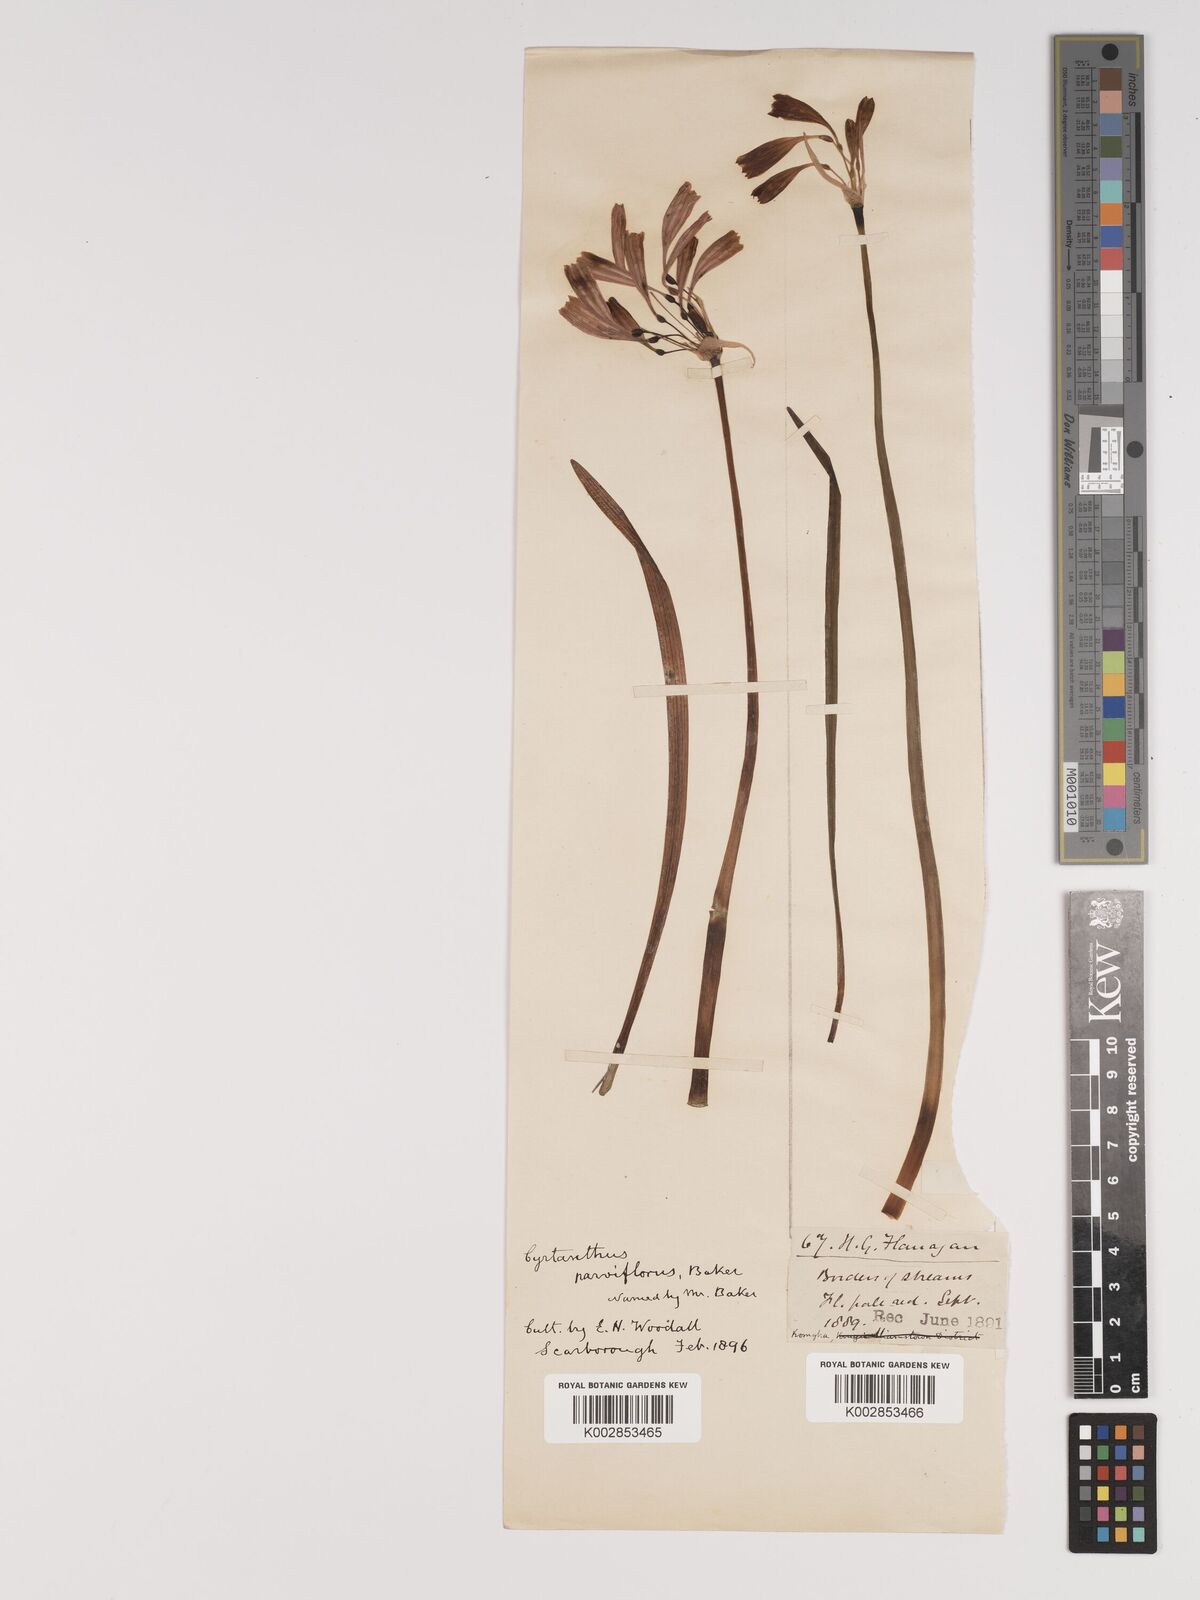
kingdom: Plantae
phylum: Tracheophyta
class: Liliopsida
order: Asparagales
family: Amaryllidaceae
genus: Cyrtanthus
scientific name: Cyrtanthus bicolor
